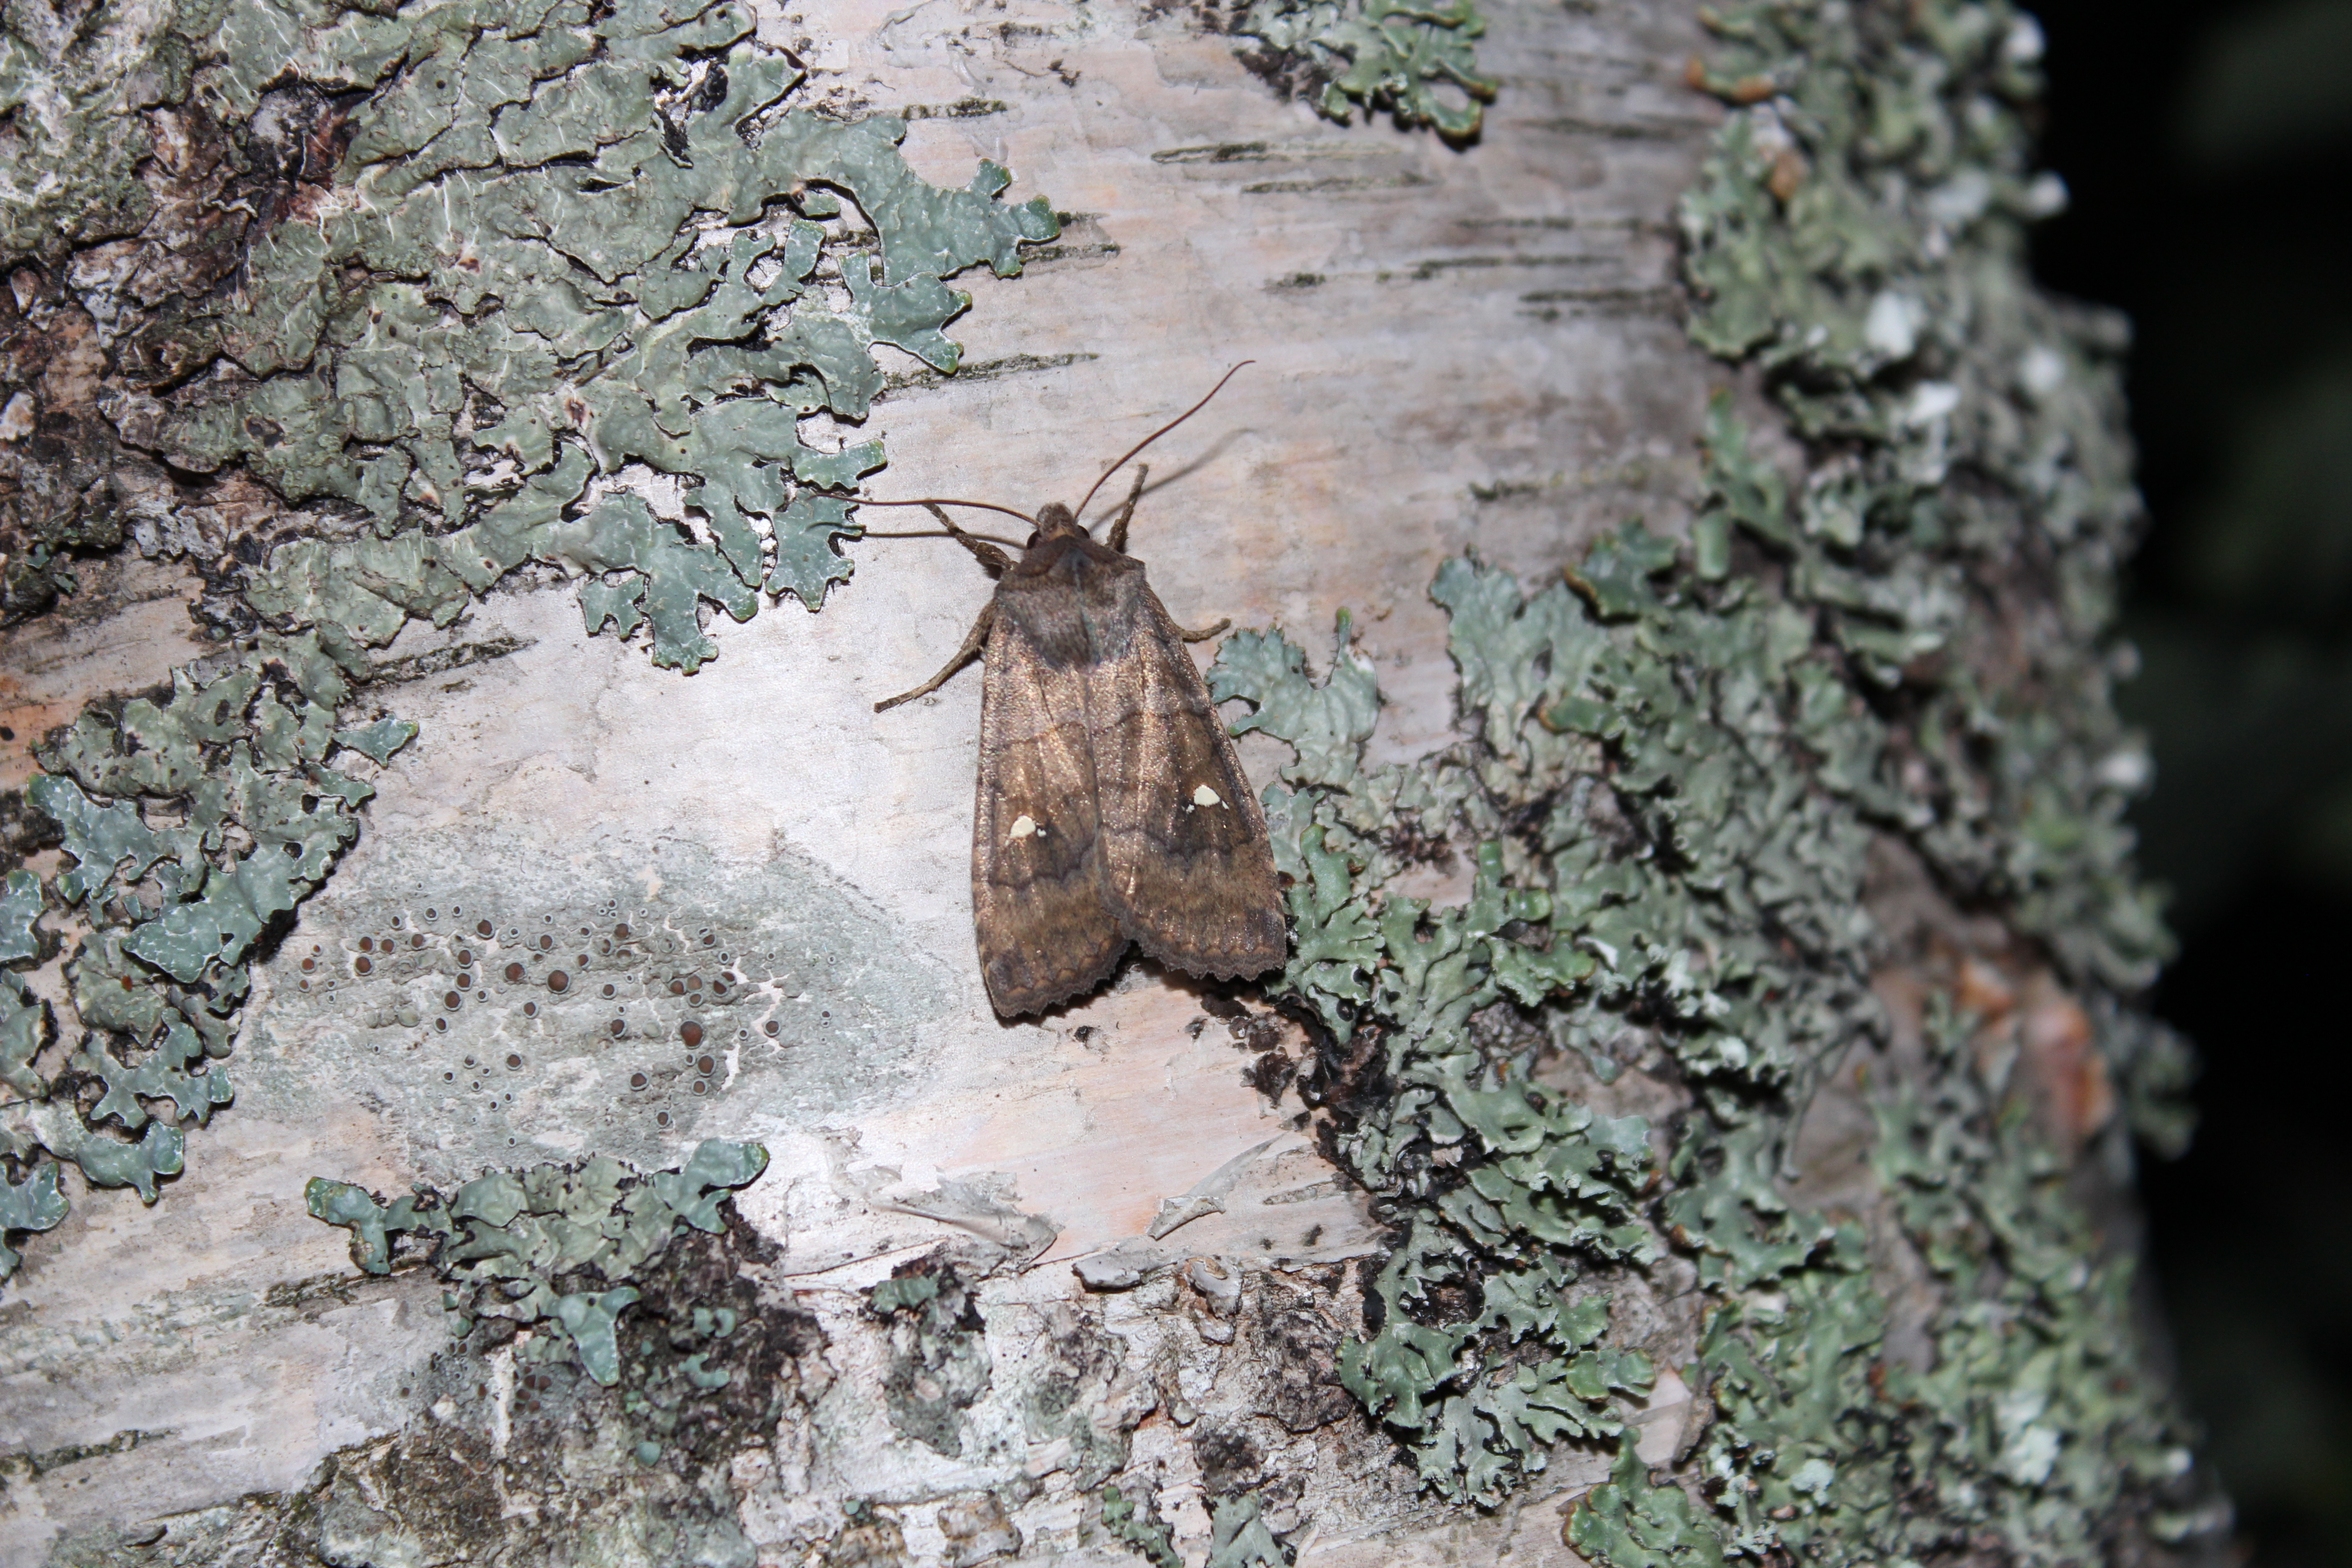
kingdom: Animalia
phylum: Arthropoda
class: Insecta
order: Lepidoptera
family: Noctuidae
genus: Eupsilia
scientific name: Eupsilia transversa
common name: Satellite
